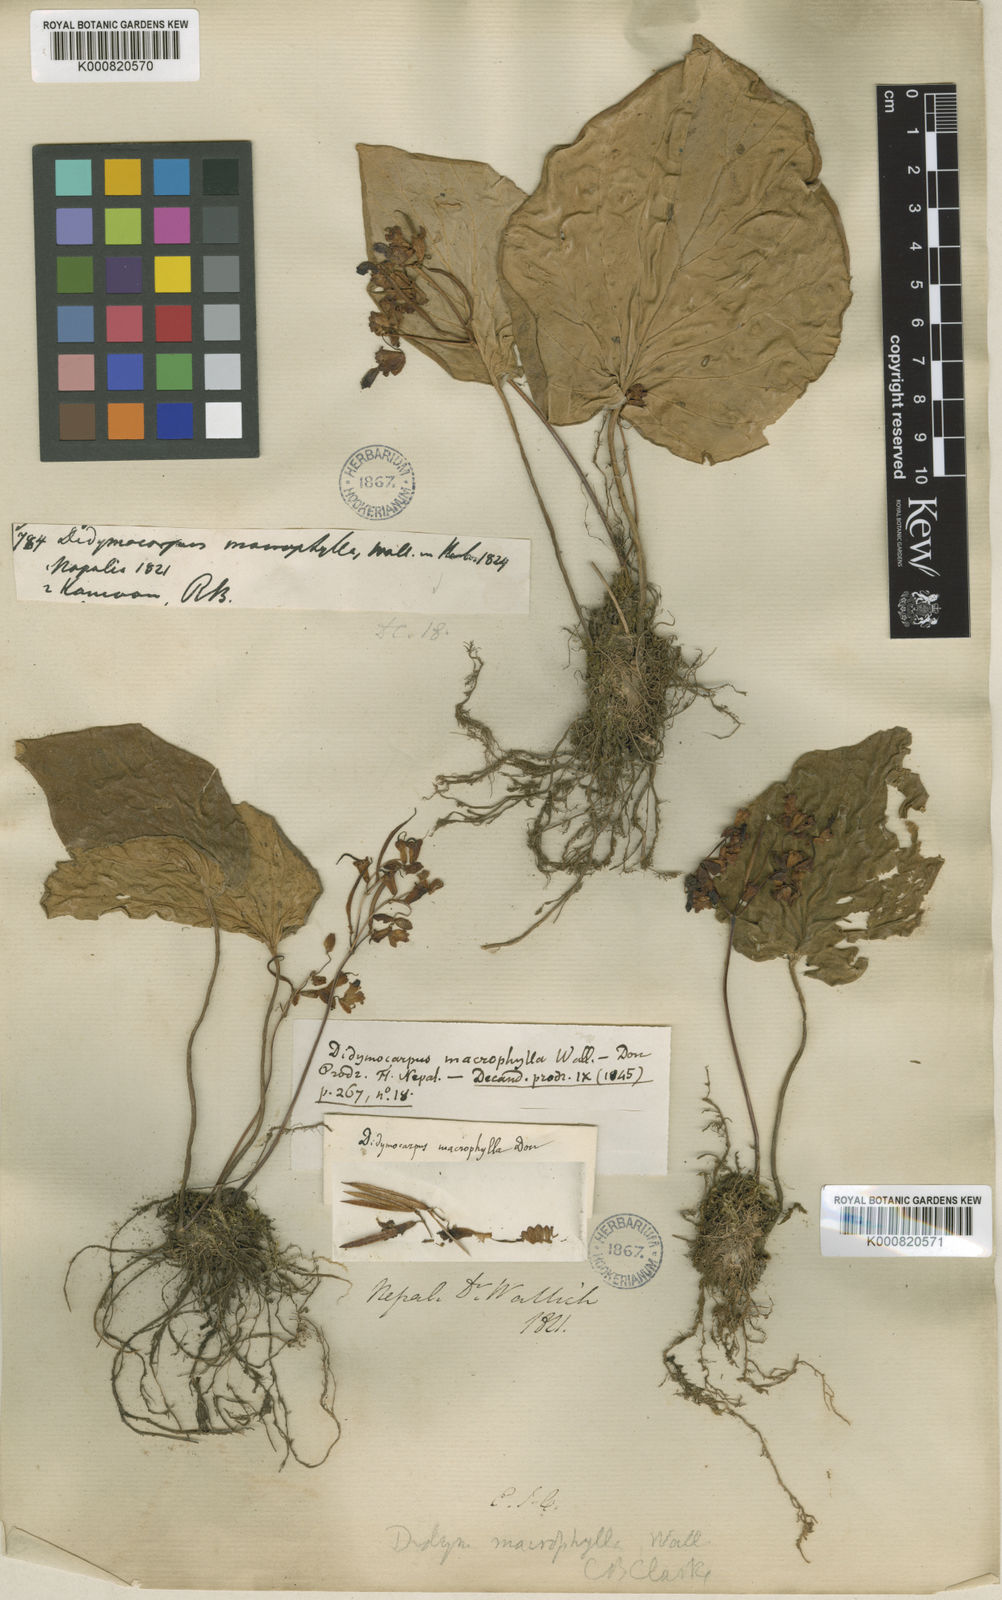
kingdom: Plantae
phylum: Tracheophyta
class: Magnoliopsida
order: Lamiales
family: Gesneriaceae
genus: Didymocarpus
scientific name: Didymocarpus macrophyllus
